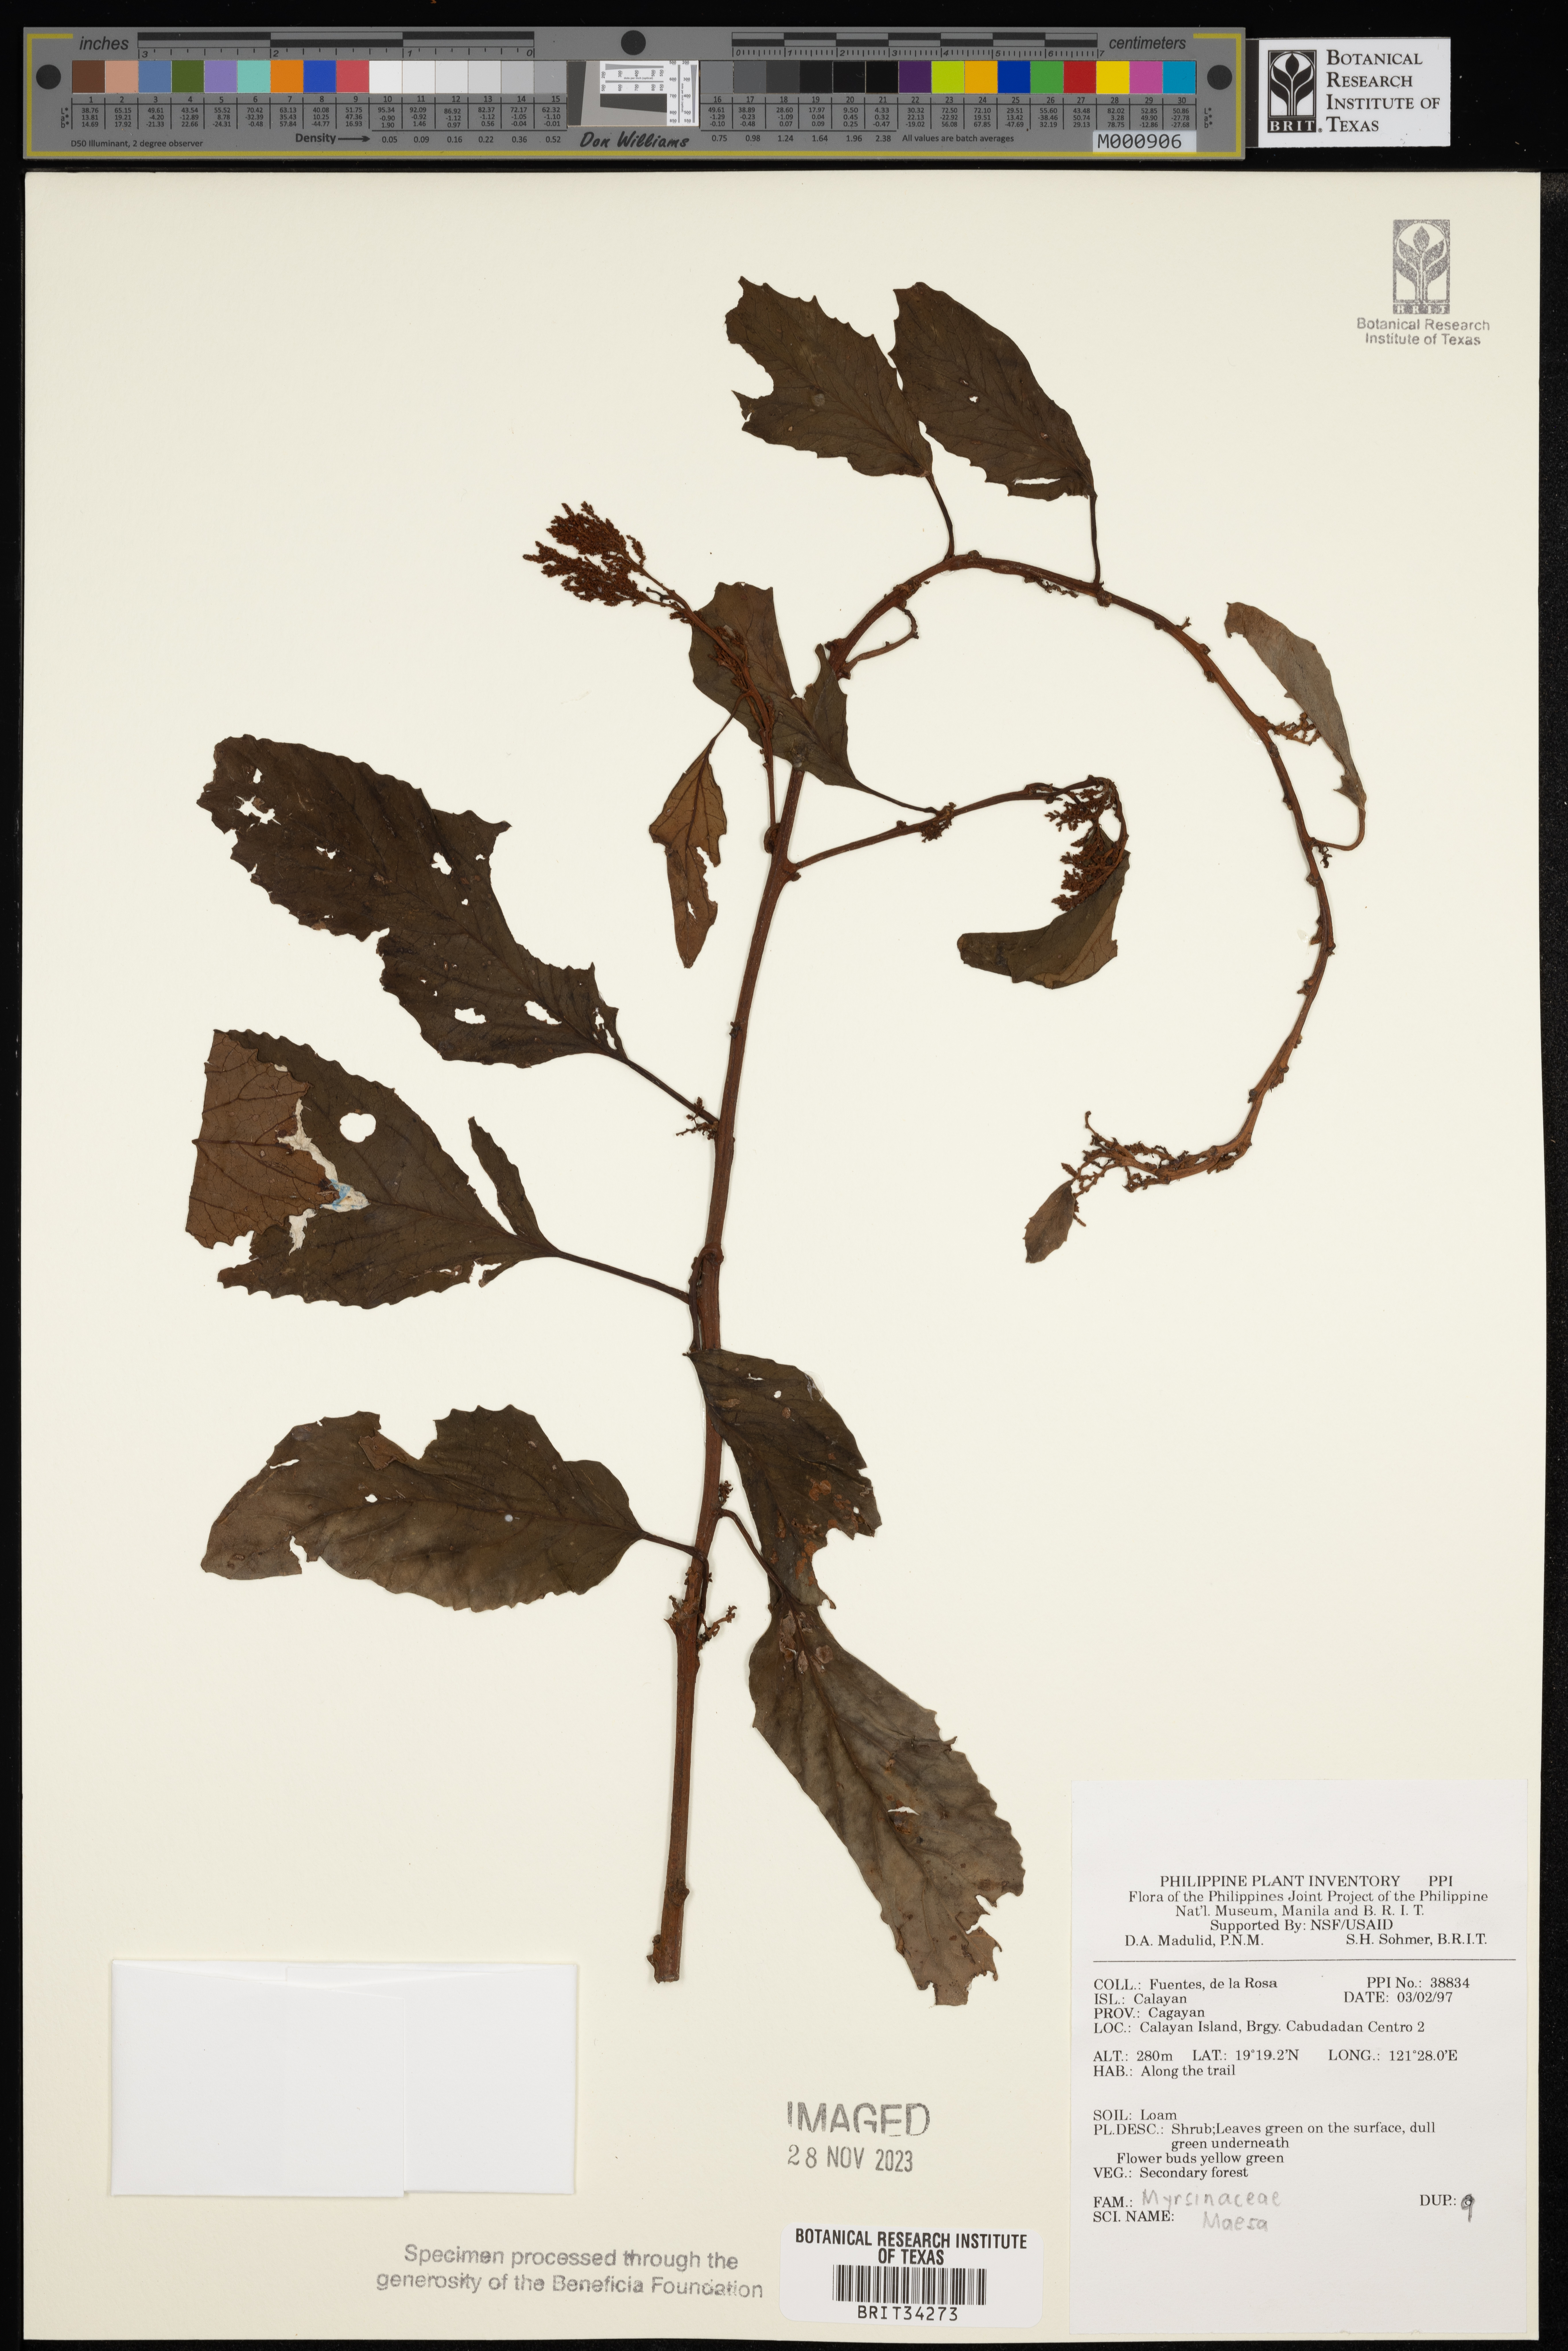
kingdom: Plantae
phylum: Tracheophyta
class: Magnoliopsida
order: Ericales
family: Primulaceae
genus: Maesa
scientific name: Maesa
